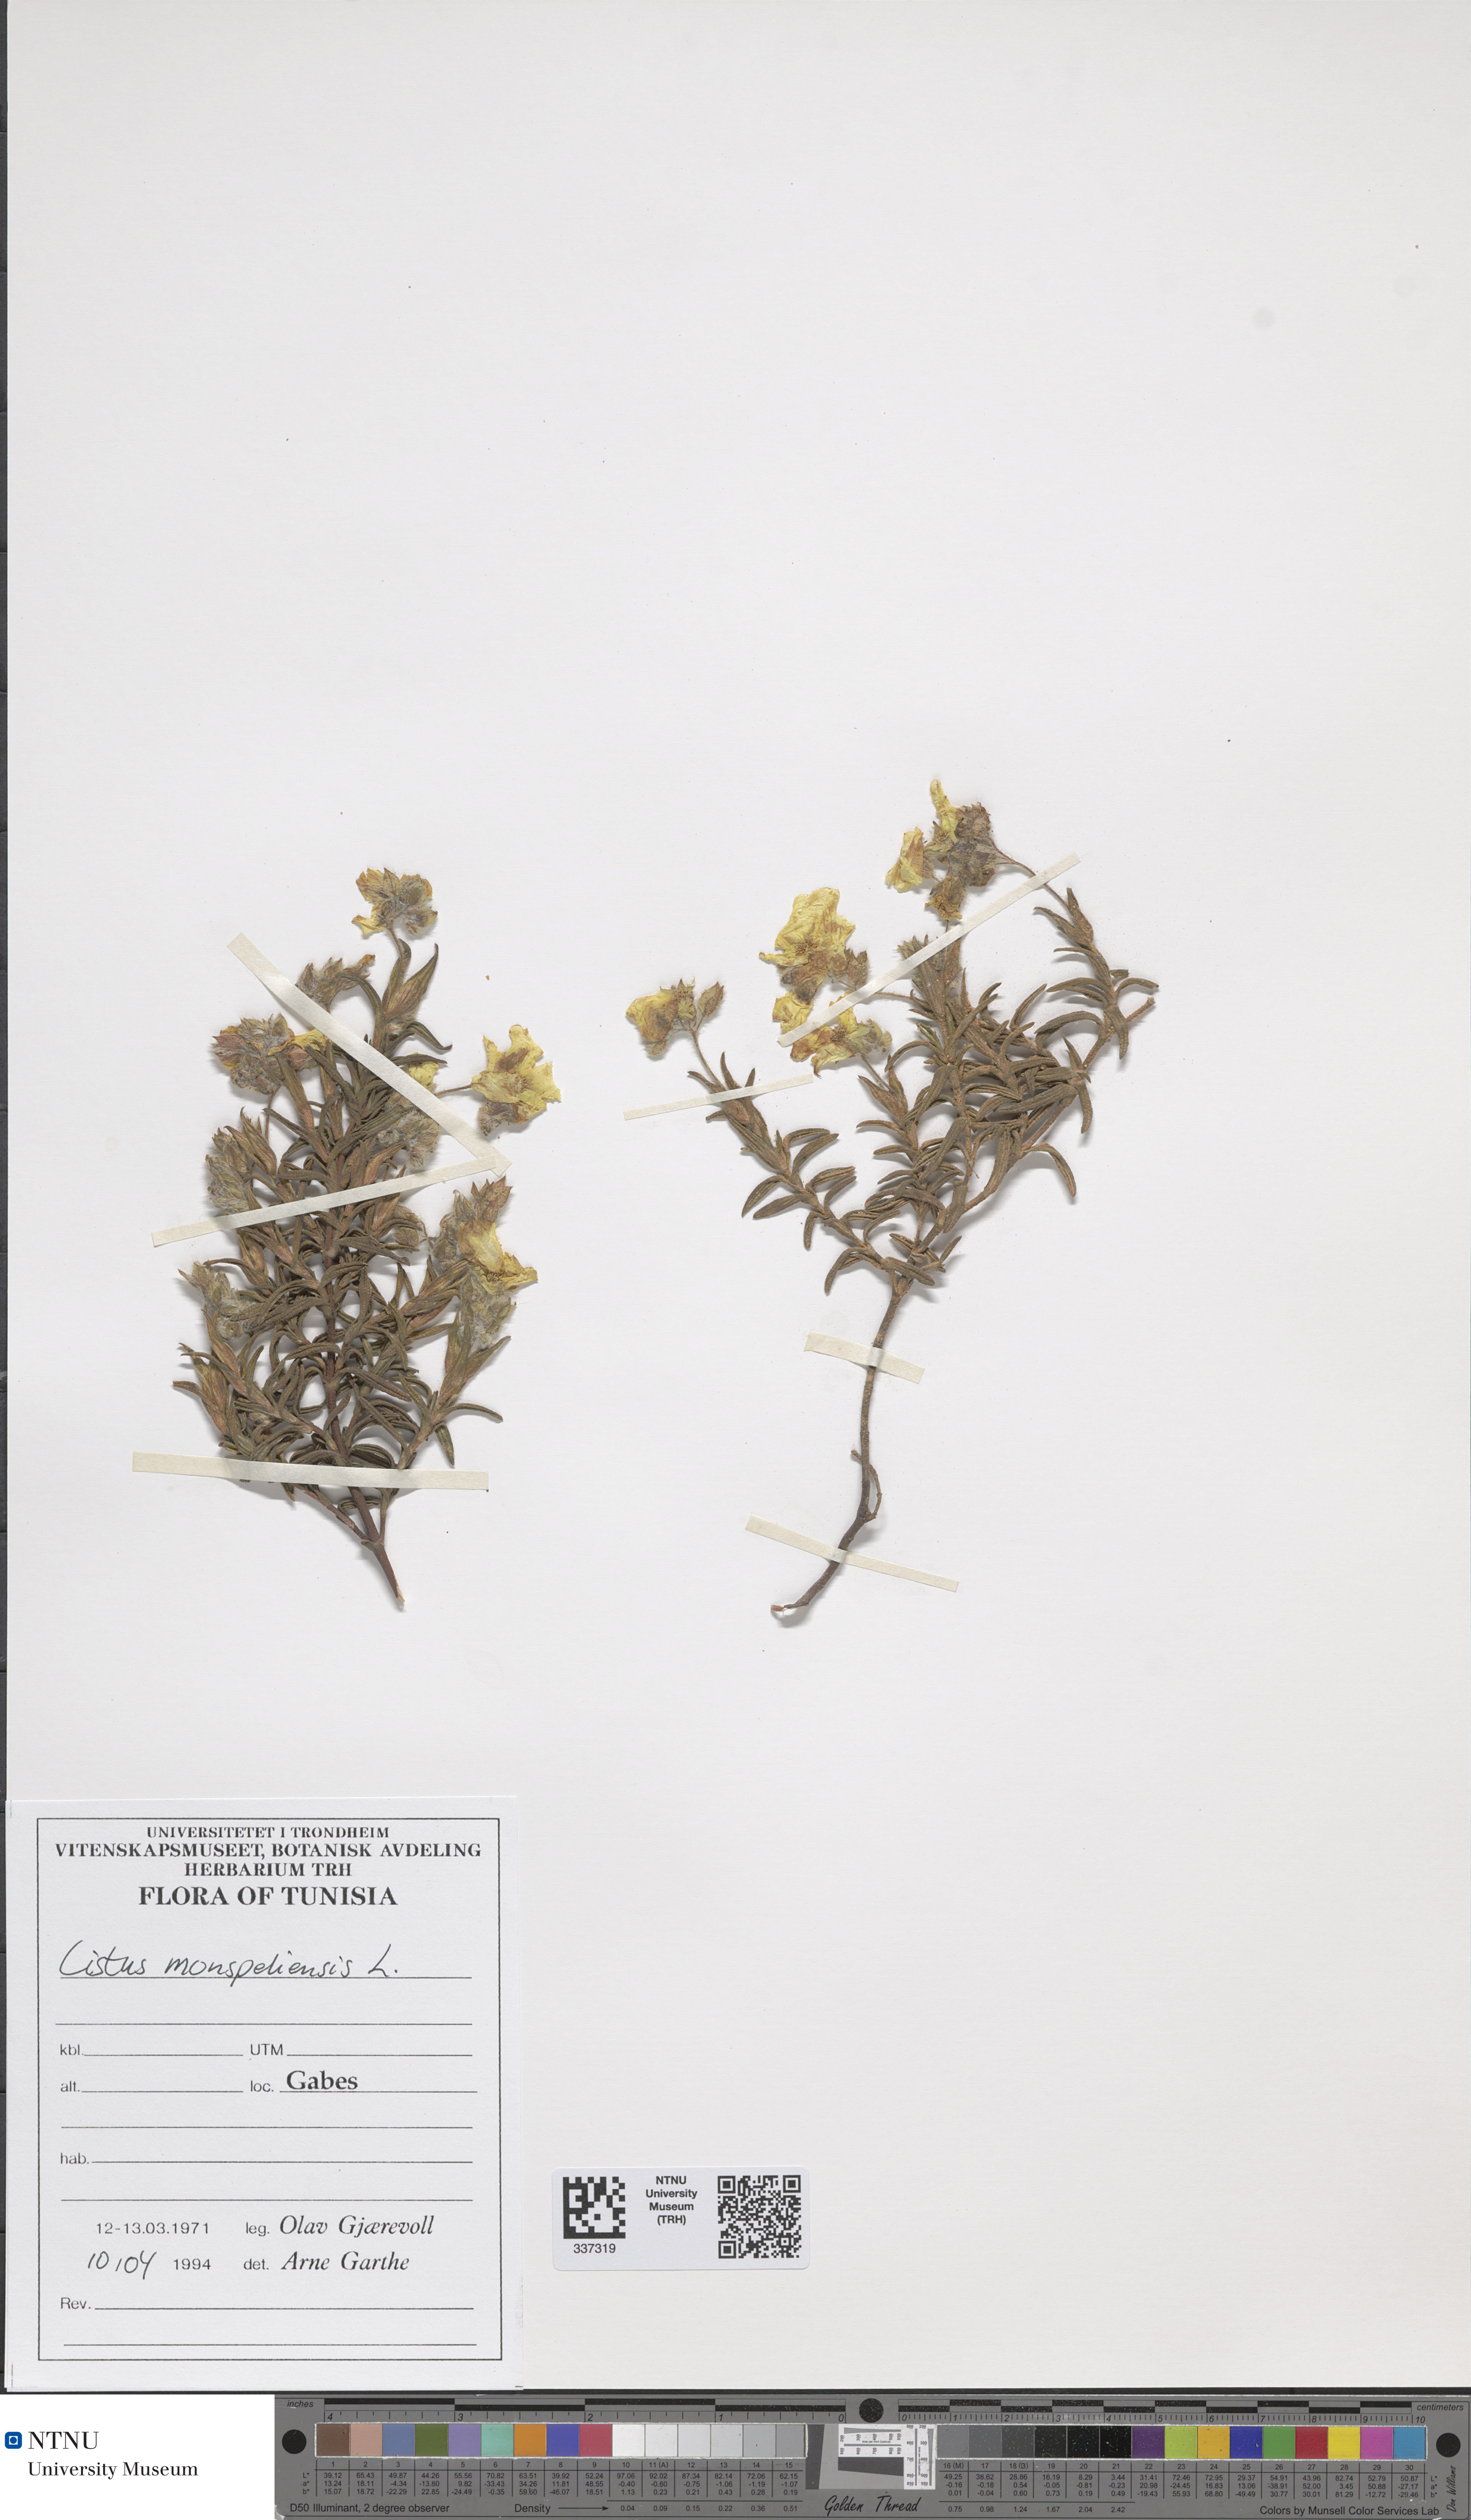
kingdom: Plantae
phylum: Tracheophyta
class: Magnoliopsida
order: Malvales
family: Cistaceae
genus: Cistus
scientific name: Cistus monspeliensis
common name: Montpelier cistus
